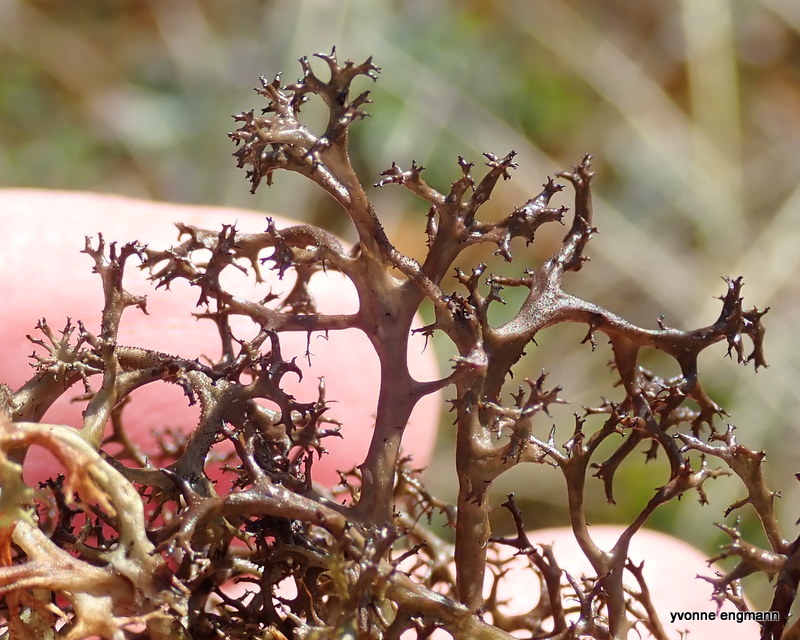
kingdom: Fungi
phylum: Ascomycota
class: Lecanoromycetes
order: Lecanorales
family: Parmeliaceae
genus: Cetraria
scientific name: Cetraria aculeata
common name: grubet tjørnelav
